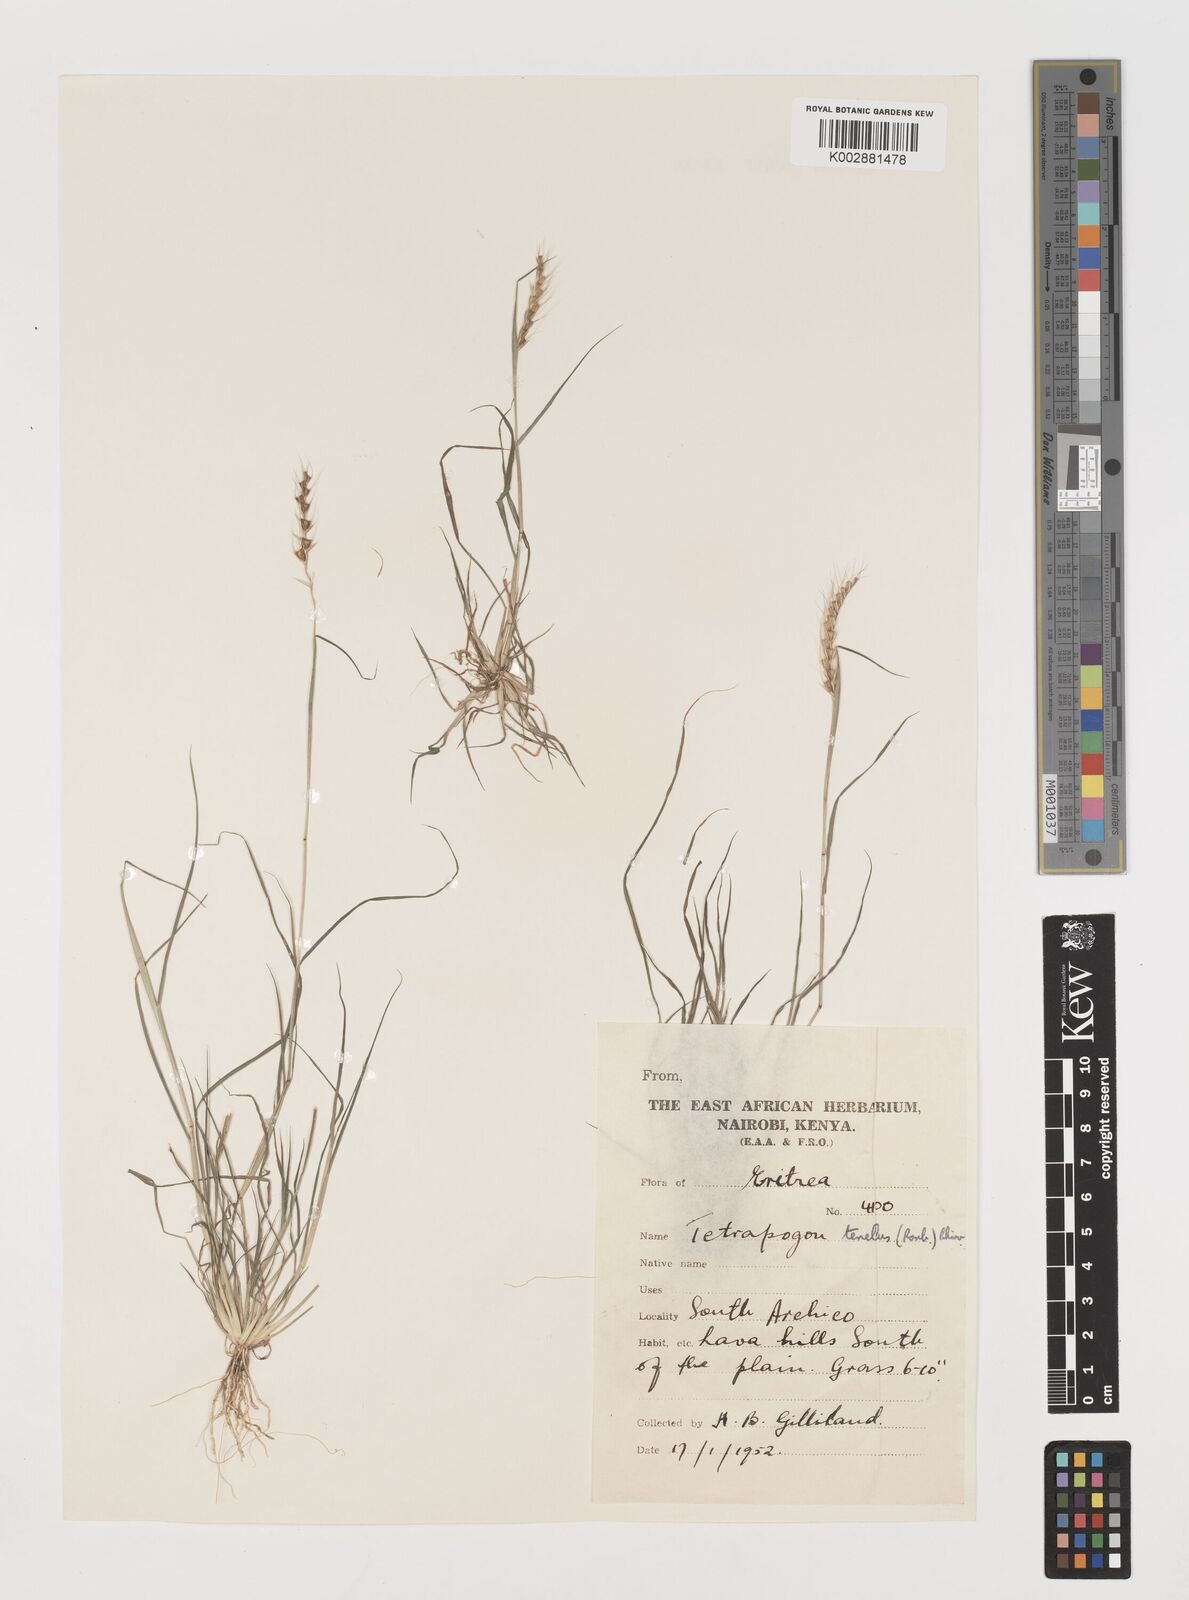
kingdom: Plantae
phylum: Tracheophyta
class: Liliopsida
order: Poales
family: Poaceae
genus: Tetrapogon
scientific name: Tetrapogon tenellus
